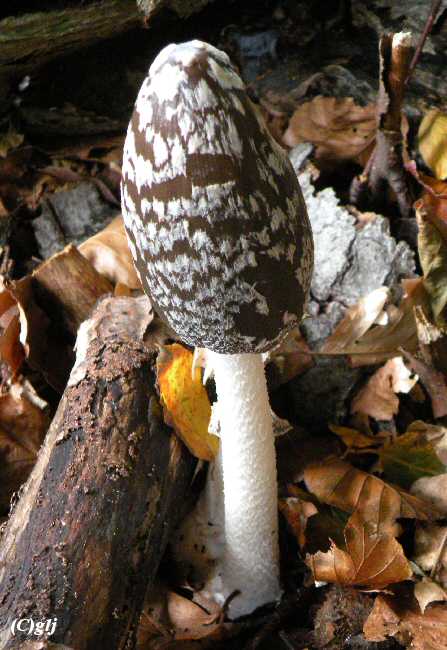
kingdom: Fungi
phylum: Basidiomycota
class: Agaricomycetes
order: Agaricales
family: Psathyrellaceae
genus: Coprinopsis
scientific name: Coprinopsis picacea
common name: skade-blækhat
